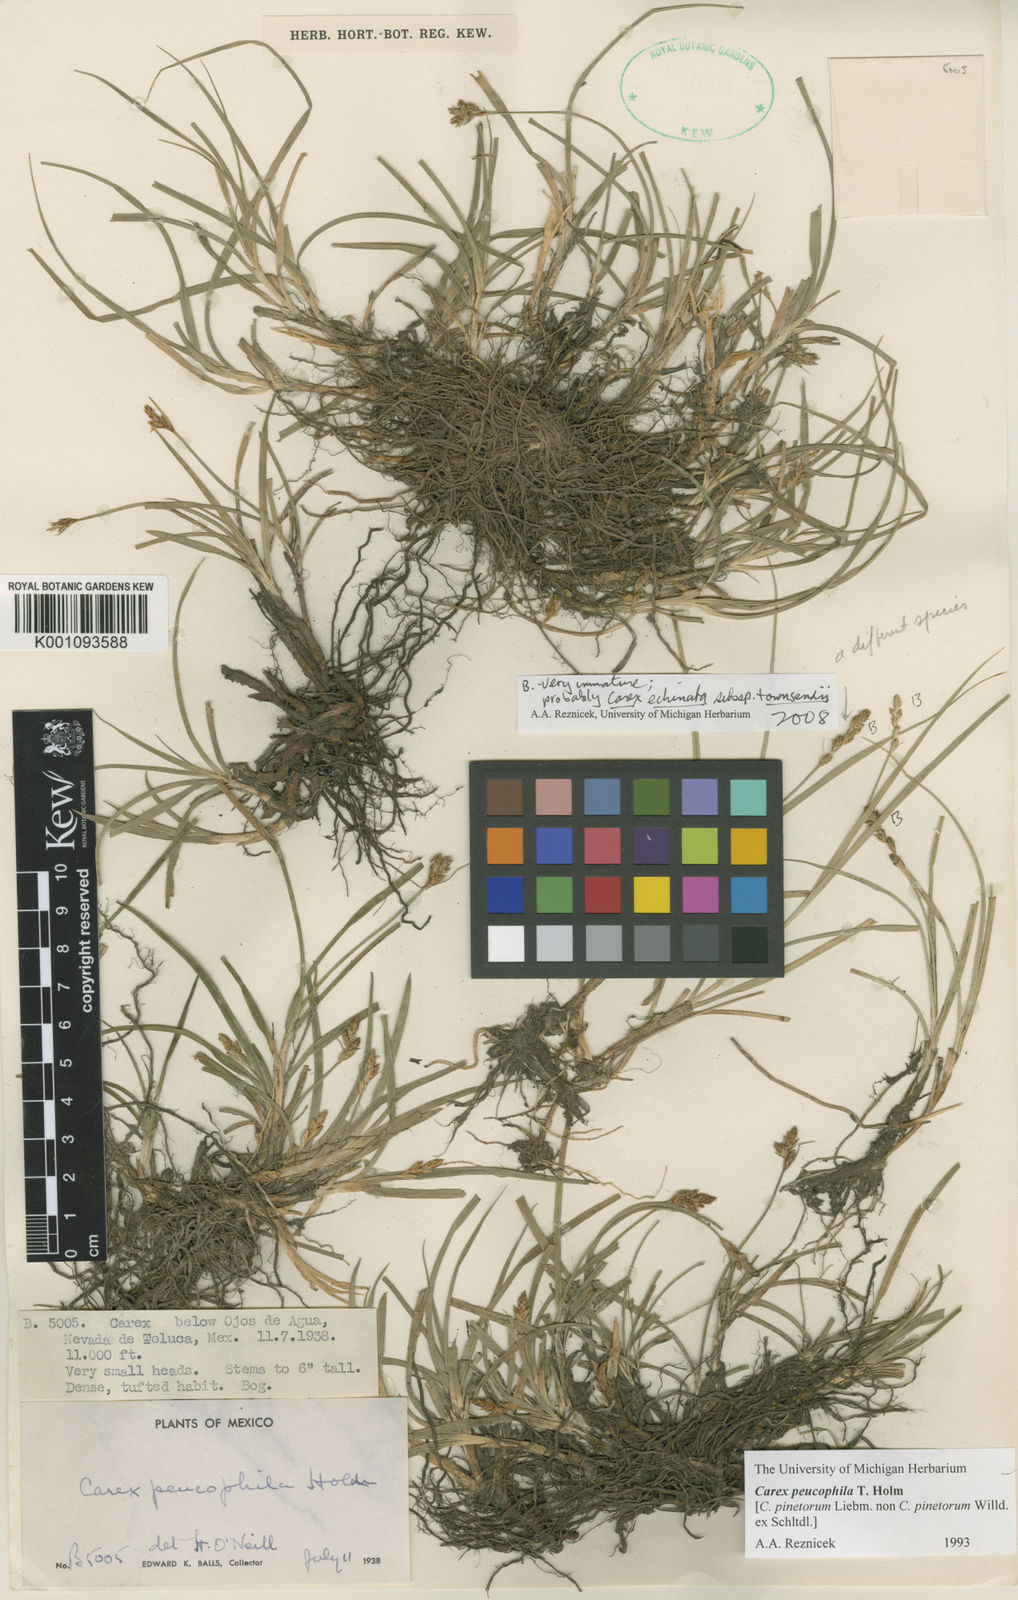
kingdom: Plantae
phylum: Tracheophyta
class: Liliopsida
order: Poales
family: Cyperaceae
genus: Carex
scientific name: Carex peucophila
